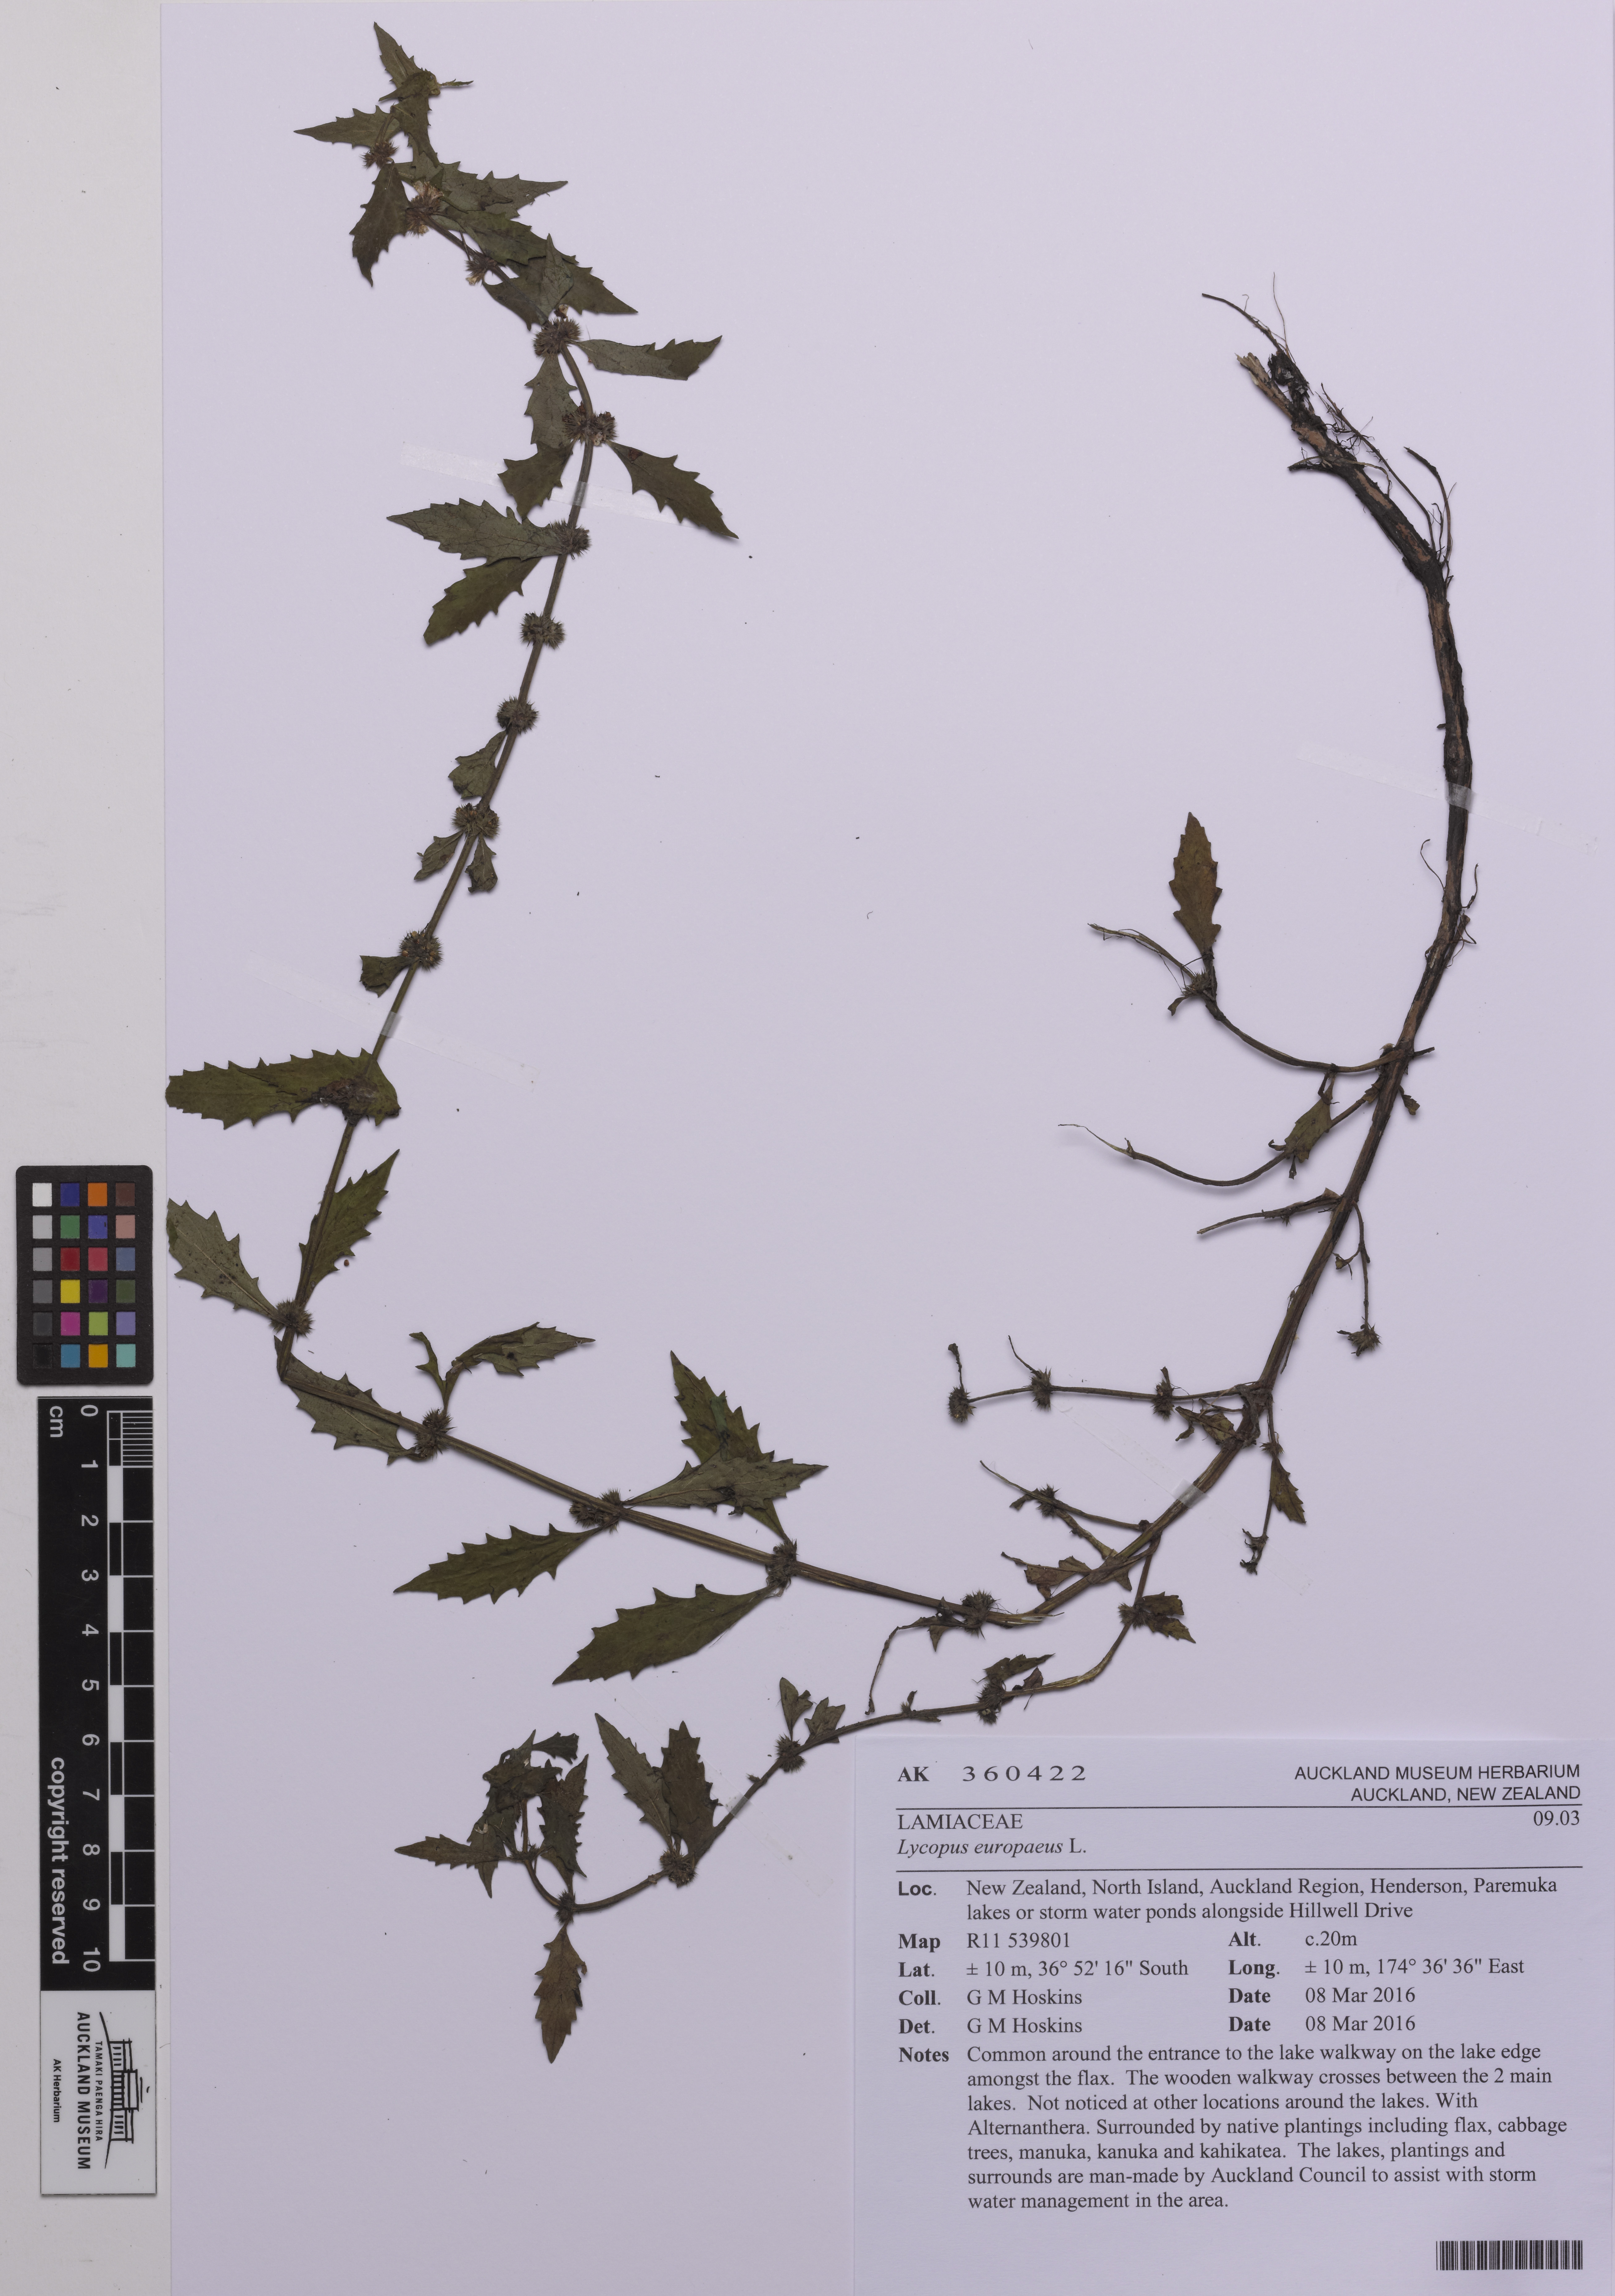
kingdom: Plantae
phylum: Tracheophyta
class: Magnoliopsida
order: Lamiales
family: Lamiaceae
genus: Lycopus
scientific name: Lycopus europaeus
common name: European bugleweed
